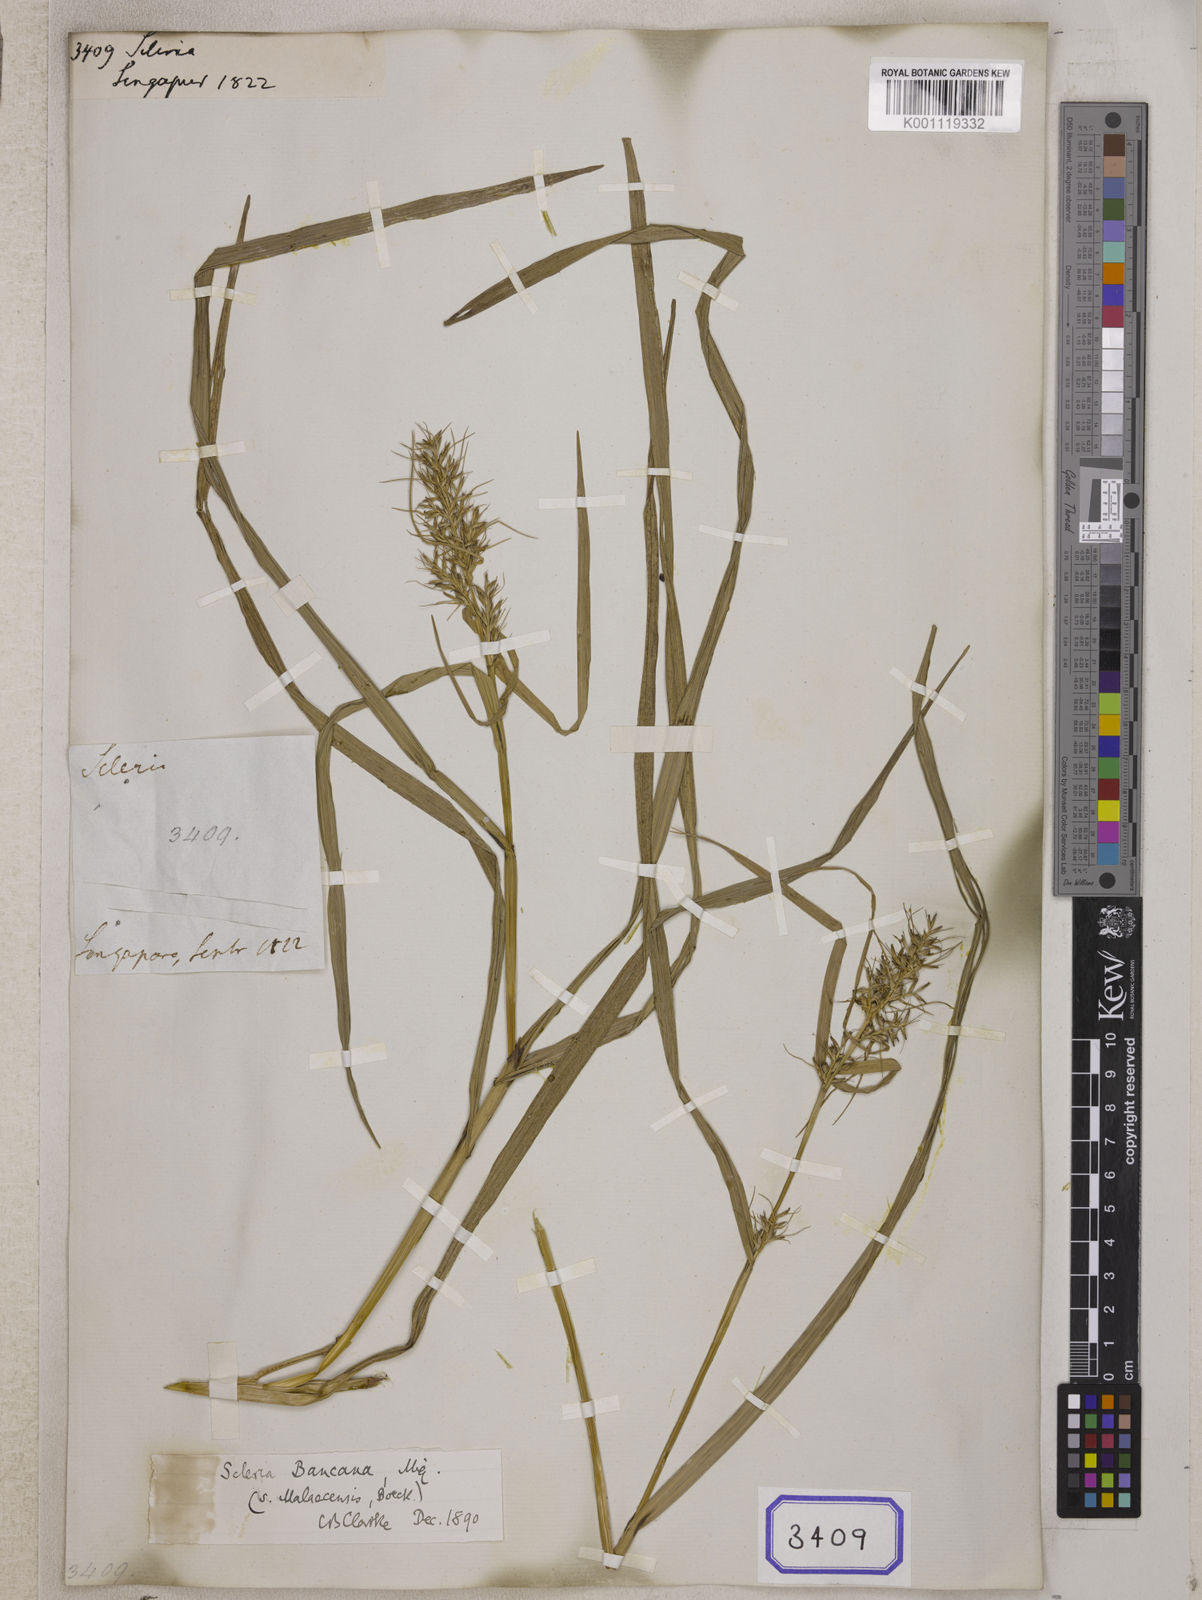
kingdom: Plantae
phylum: Tracheophyta
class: Liliopsida
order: Poales
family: Cyperaceae
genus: Scleria
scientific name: Scleria
